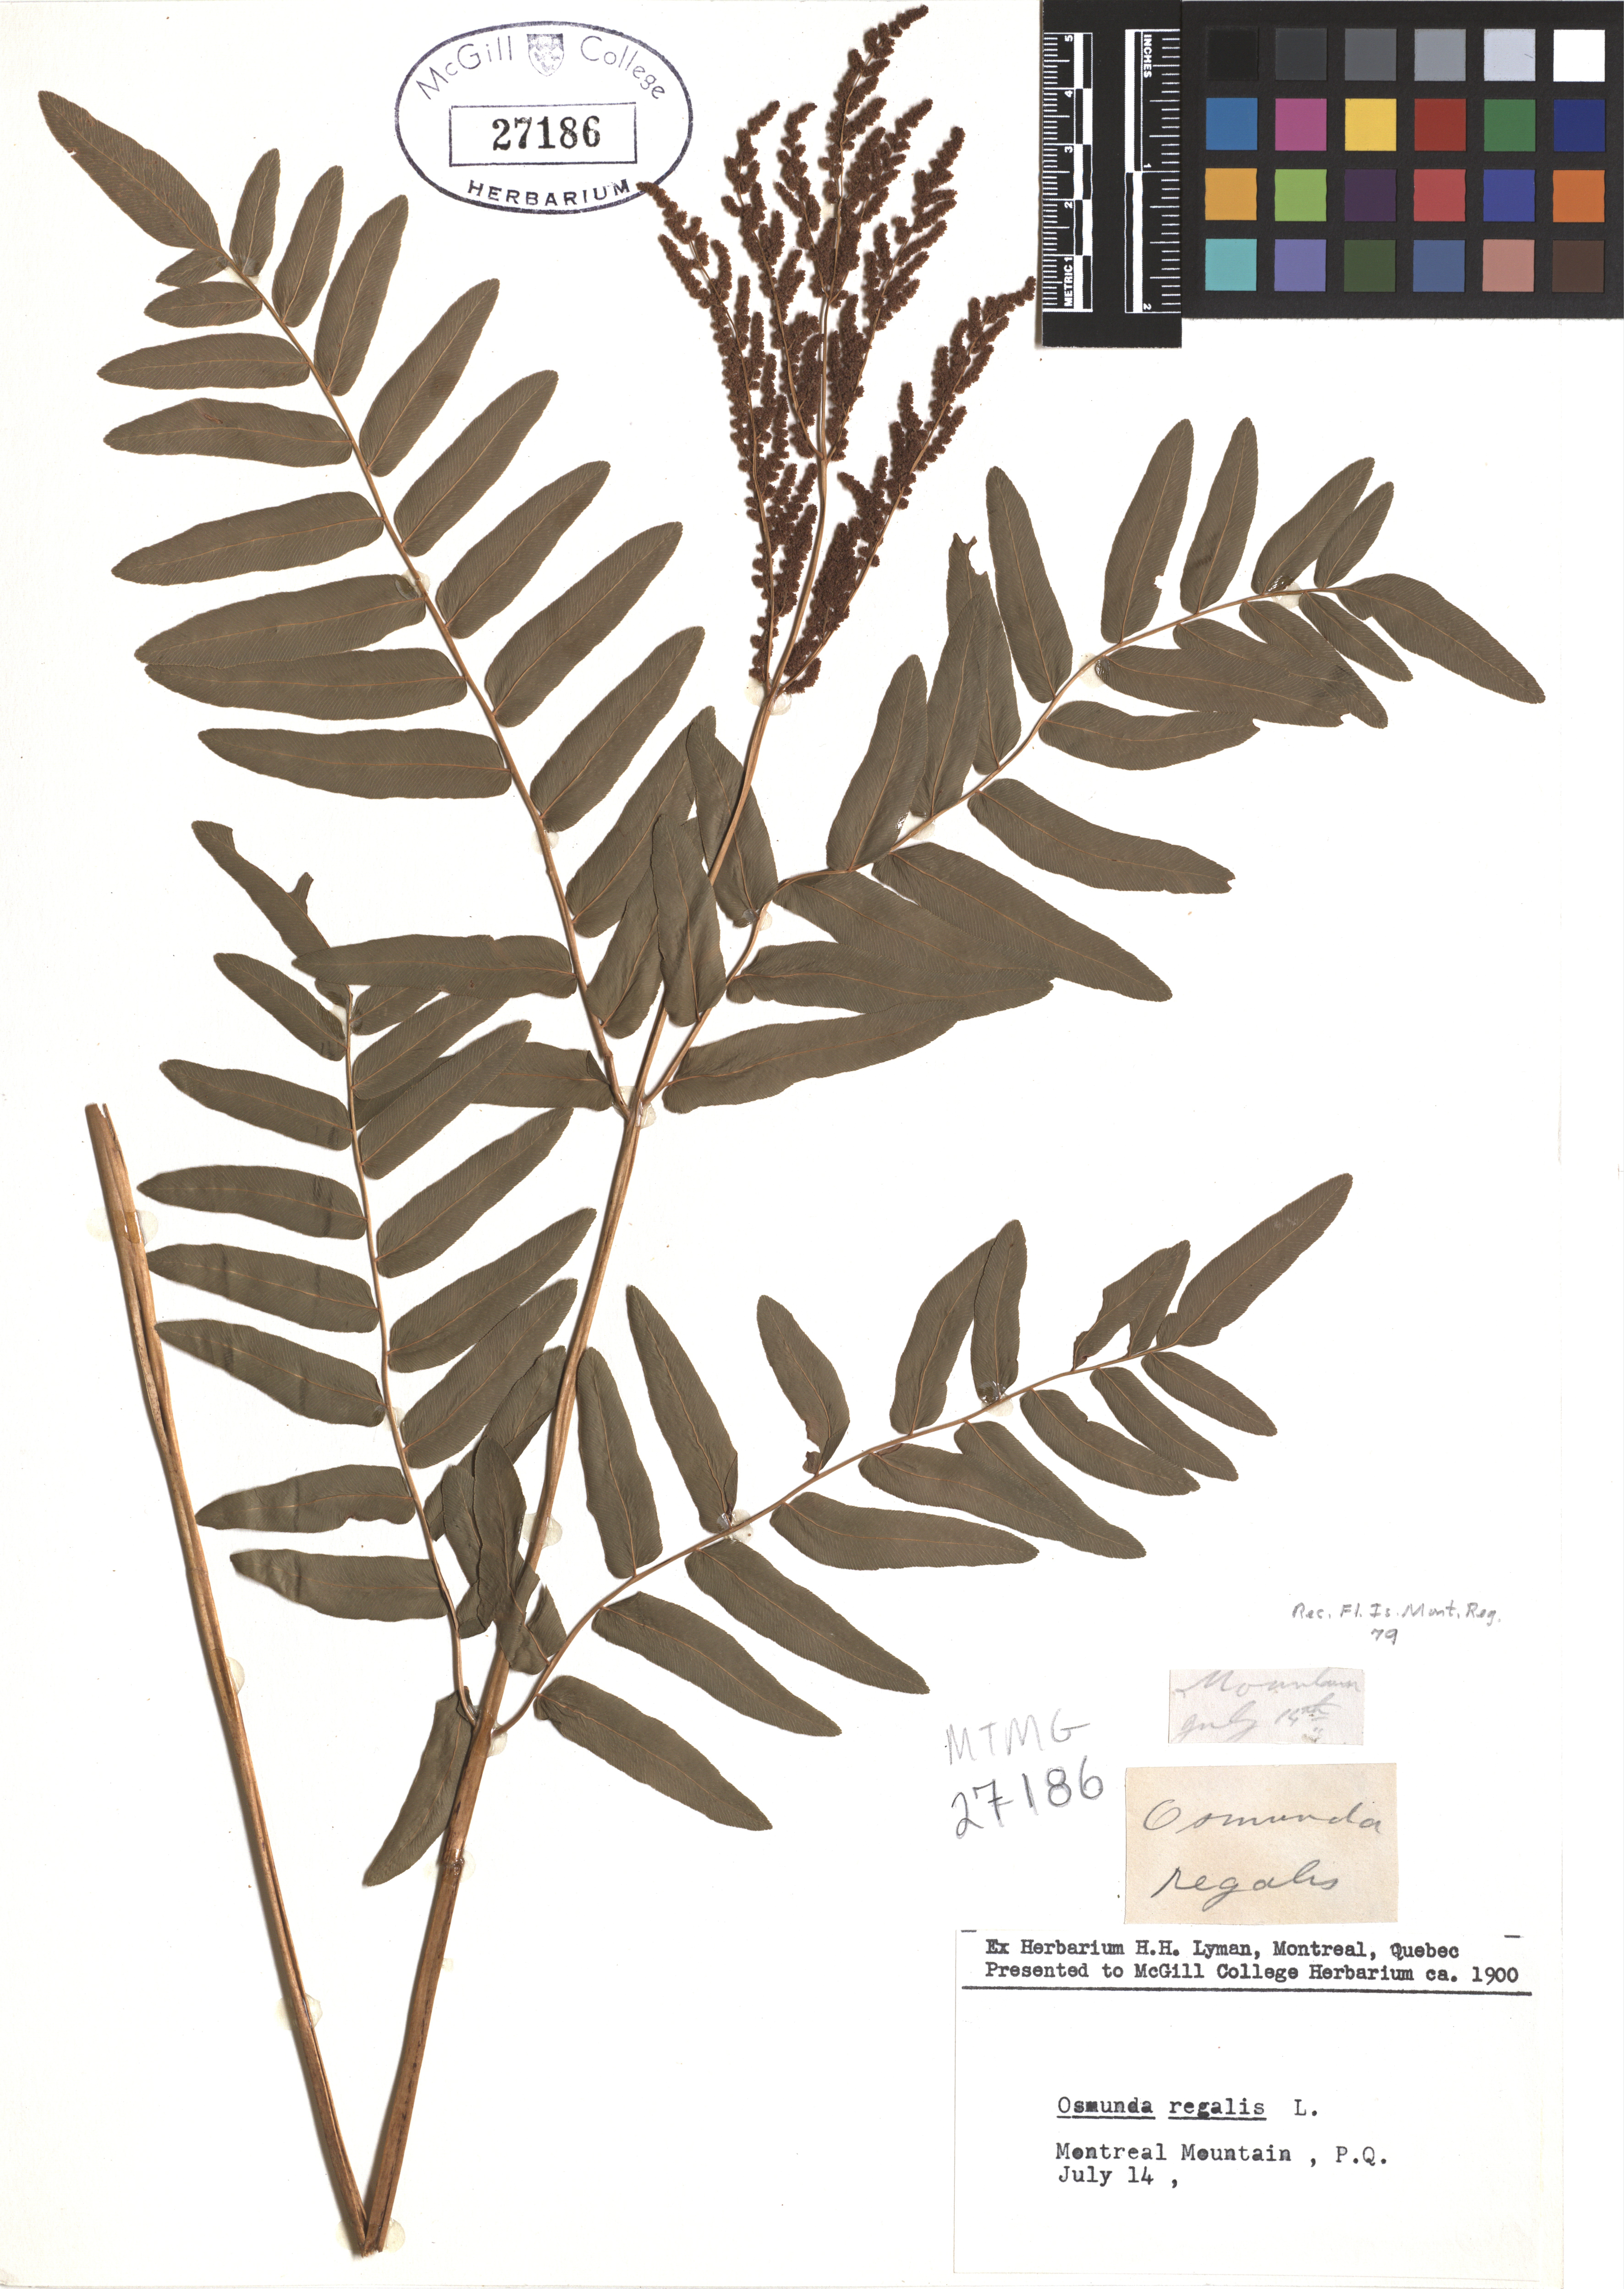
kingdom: Plantae
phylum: Tracheophyta
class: Polypodiopsida
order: Osmundales
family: Osmundaceae
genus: Osmunda
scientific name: Osmunda regalis
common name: Royal fern
